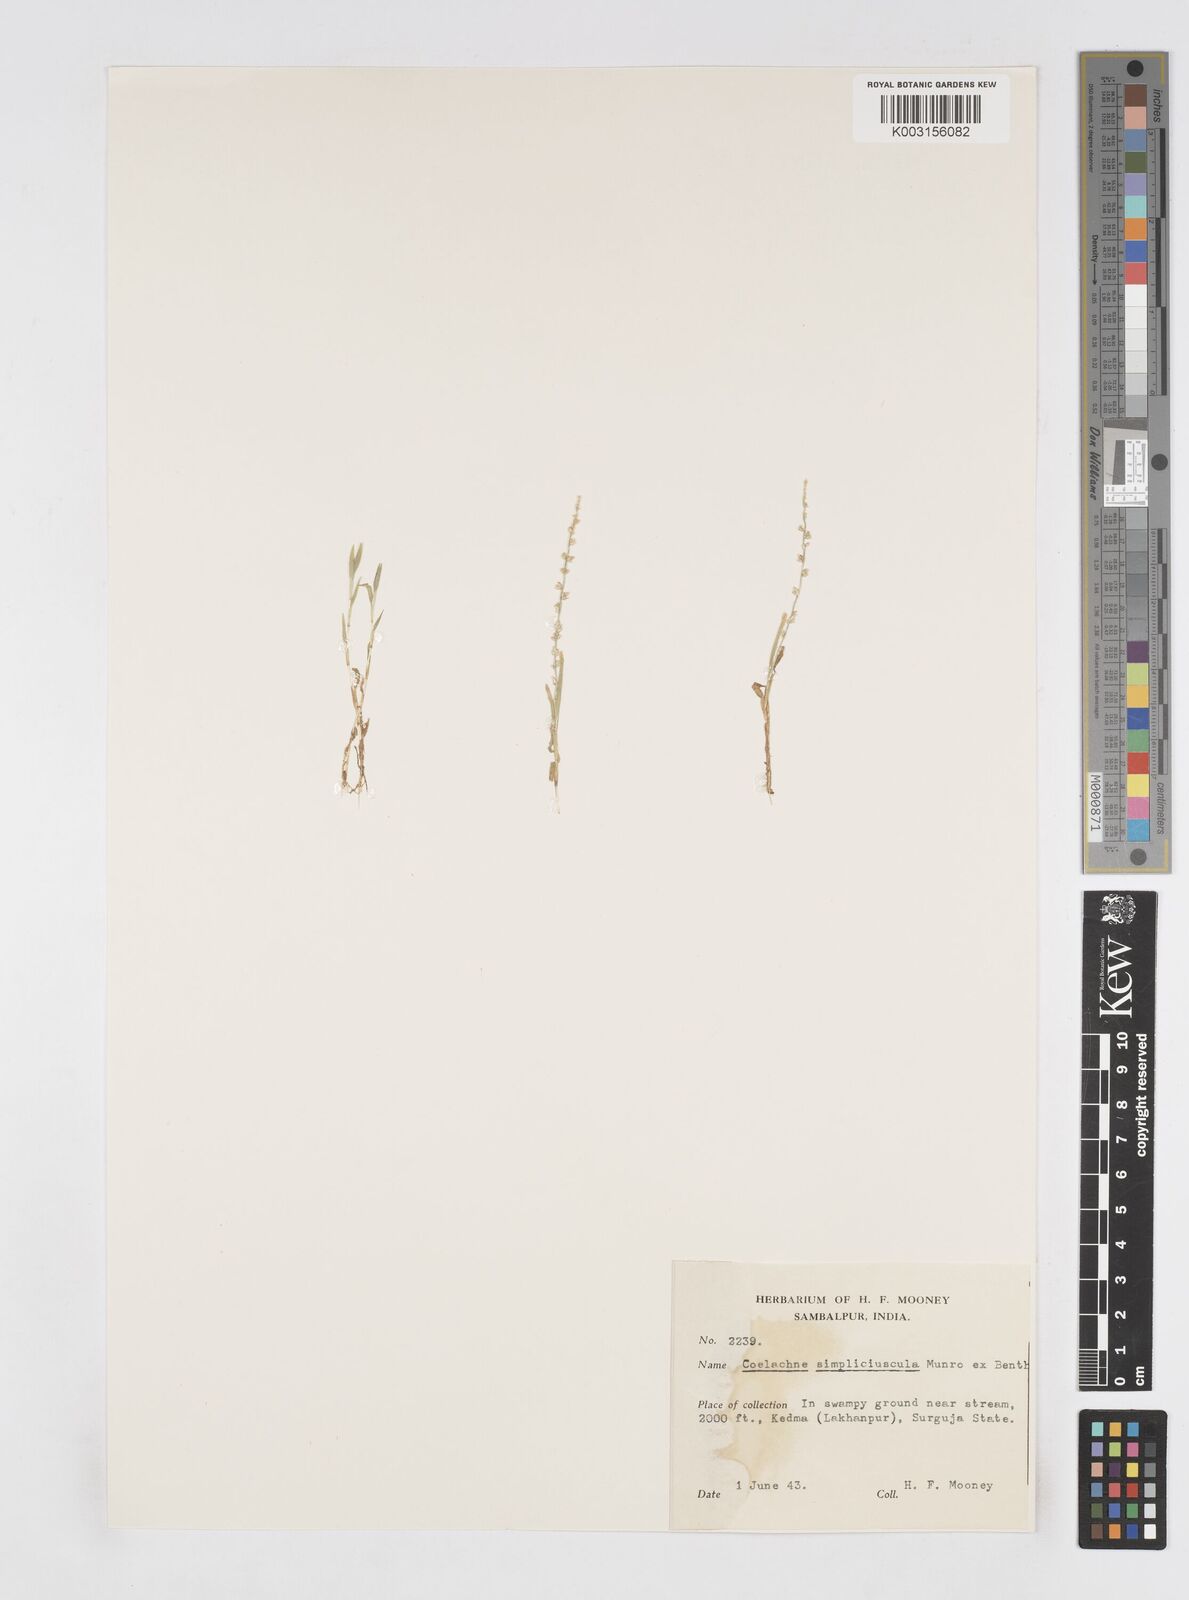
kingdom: Plantae
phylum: Tracheophyta
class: Liliopsida
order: Poales
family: Poaceae
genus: Coelachne
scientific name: Coelachne simpliciuscula
